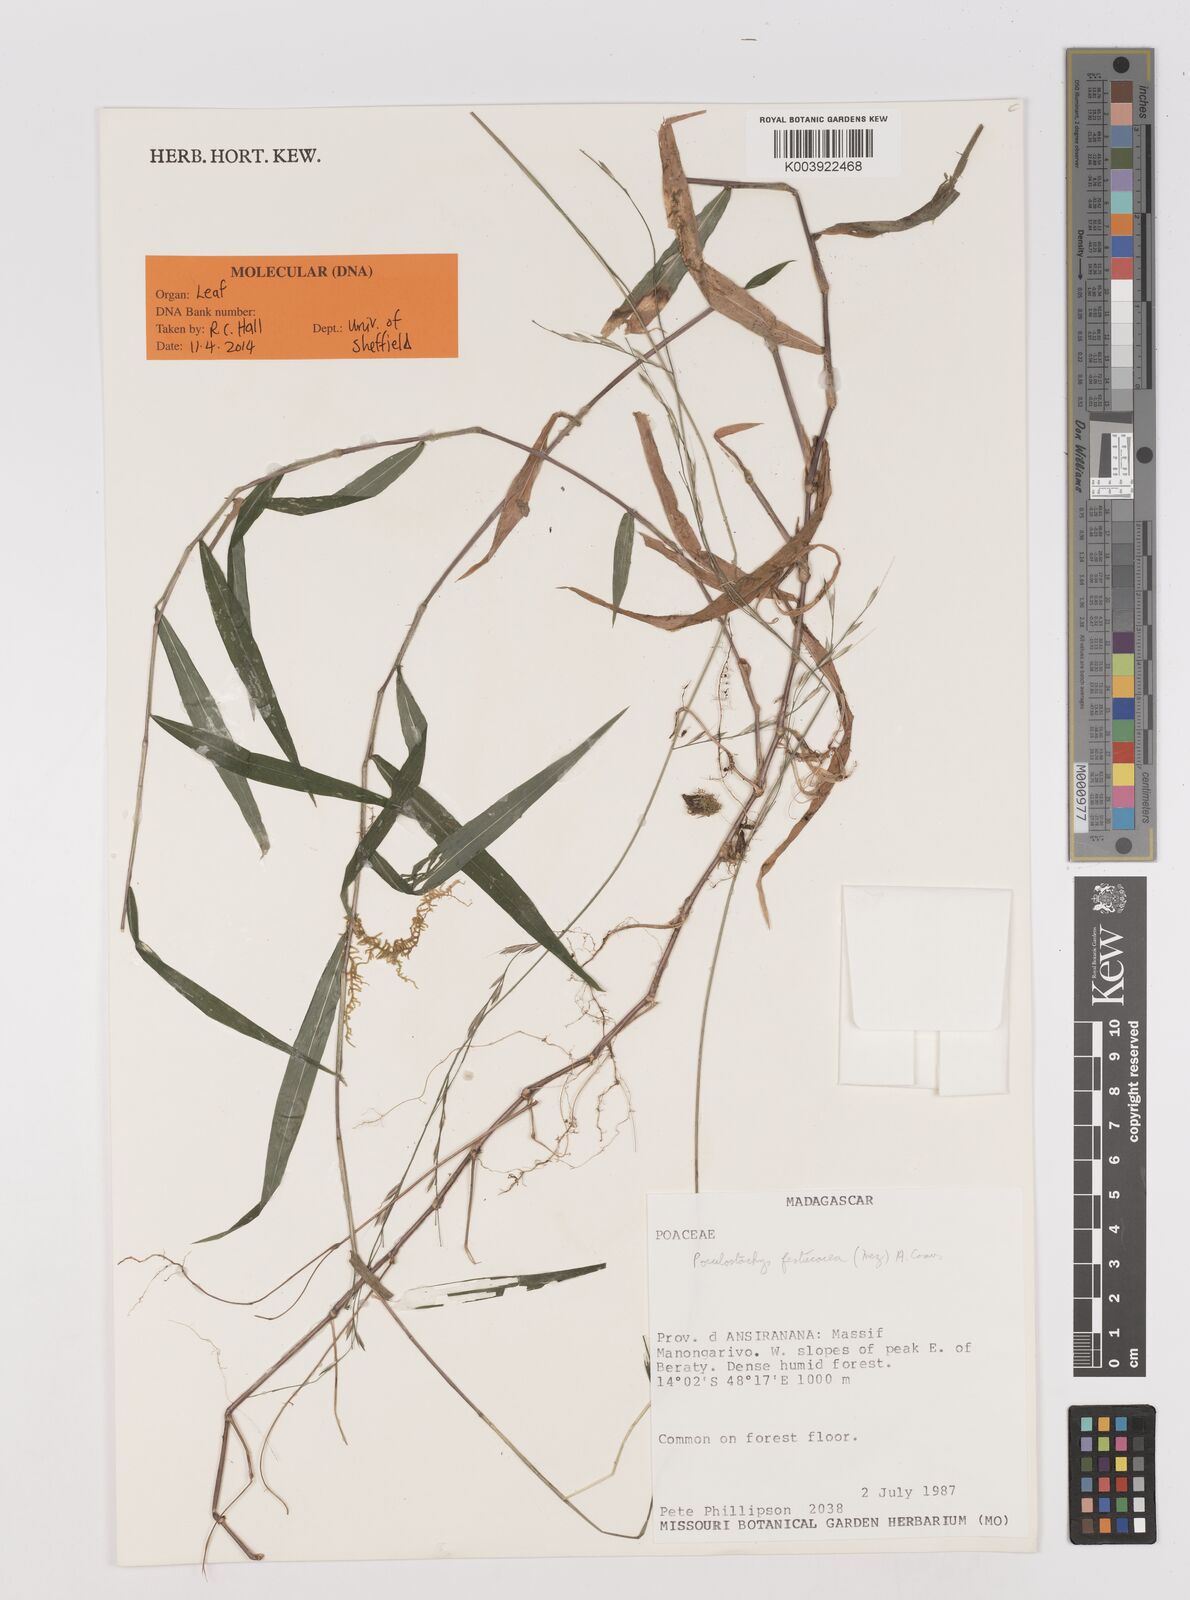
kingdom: Plantae
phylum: Tracheophyta
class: Liliopsida
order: Poales
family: Poaceae
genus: Poecilostachys
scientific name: Poecilostachys baronis
